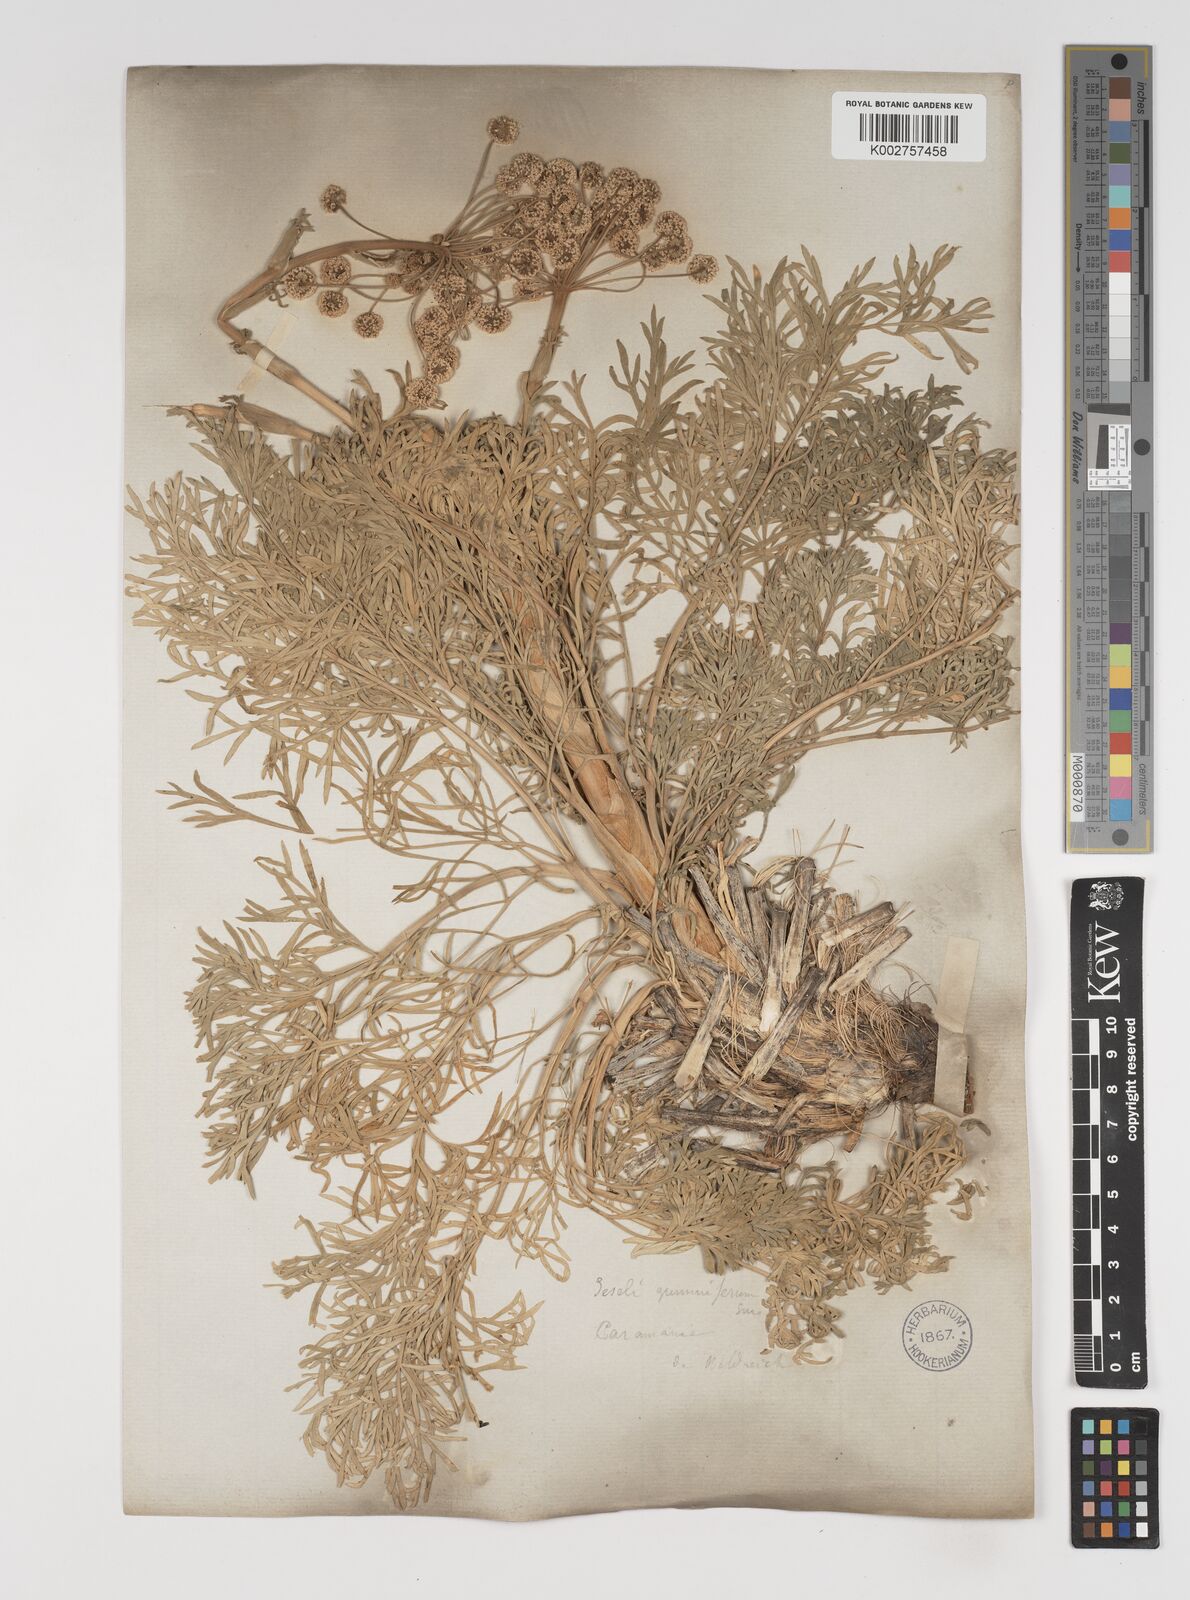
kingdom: Plantae
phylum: Tracheophyta
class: Magnoliopsida
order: Apiales
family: Apiaceae
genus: Seseli
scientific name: Seseli corymbosum
